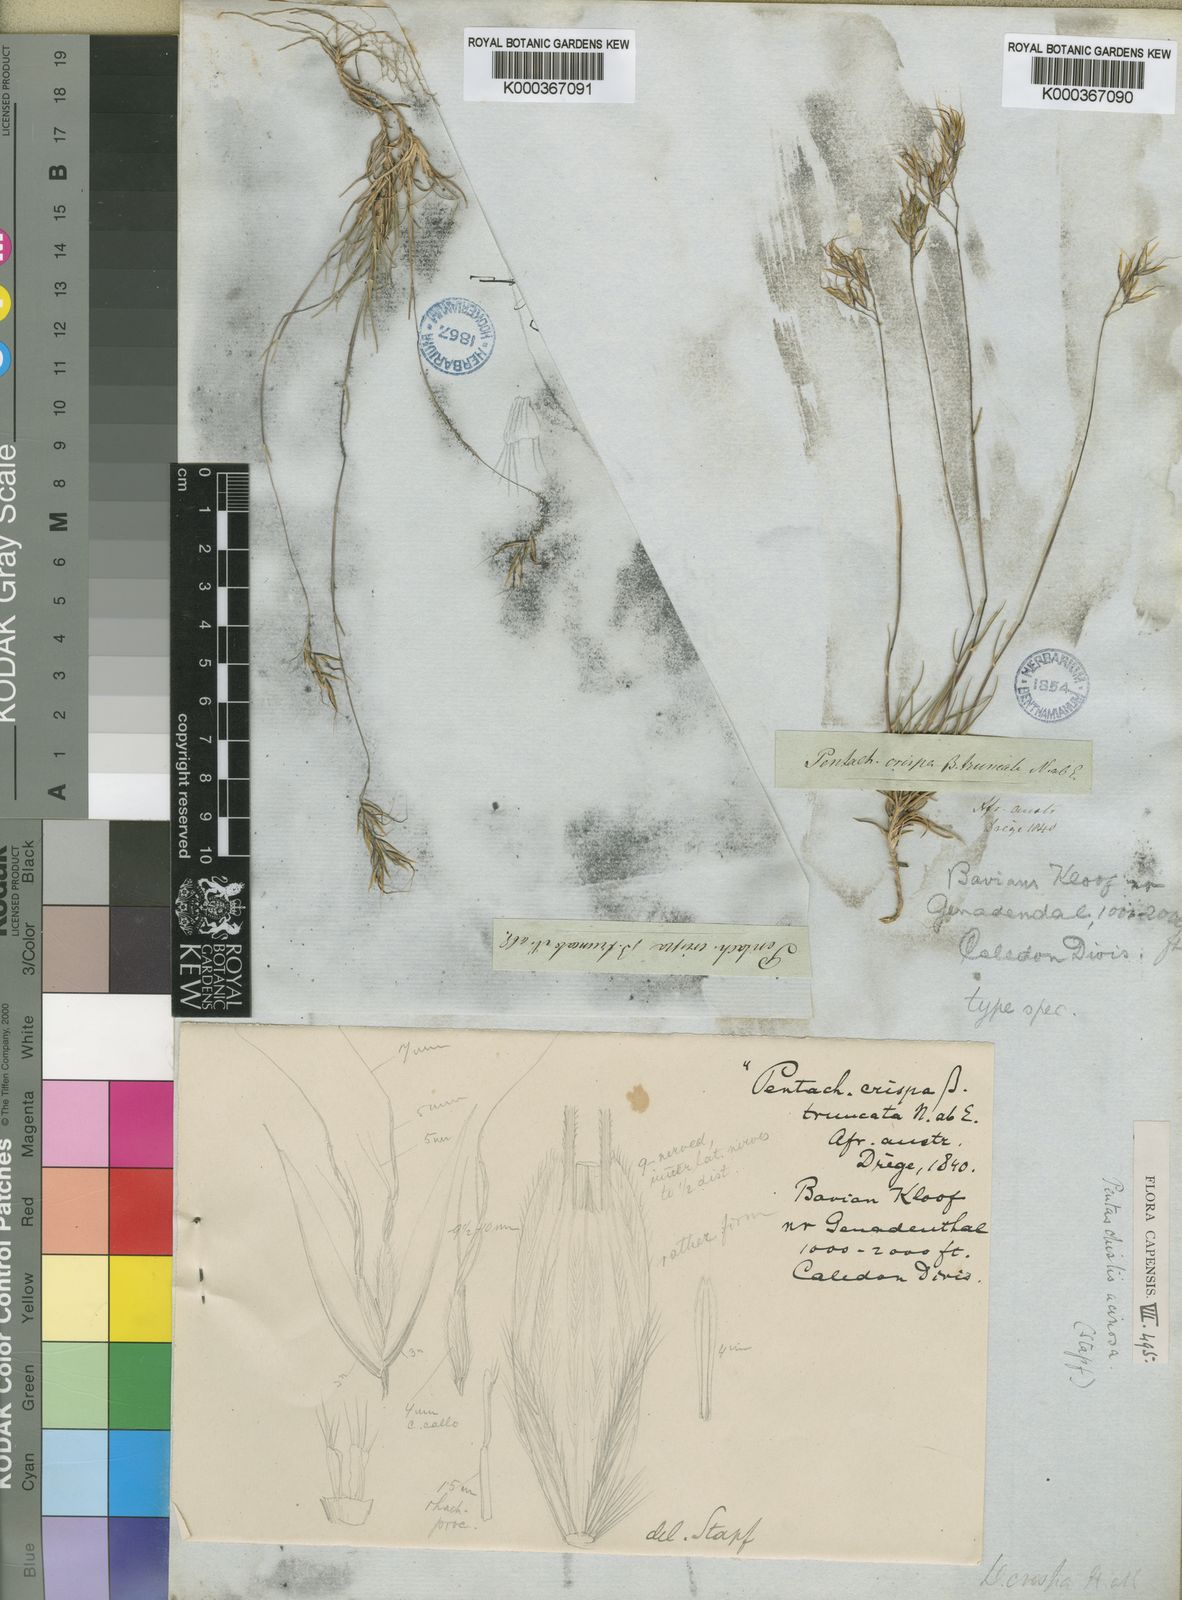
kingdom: Plantae
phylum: Tracheophyta
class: Liliopsida
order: Poales
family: Poaceae
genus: Pentameris
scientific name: Pentameris acinosa
